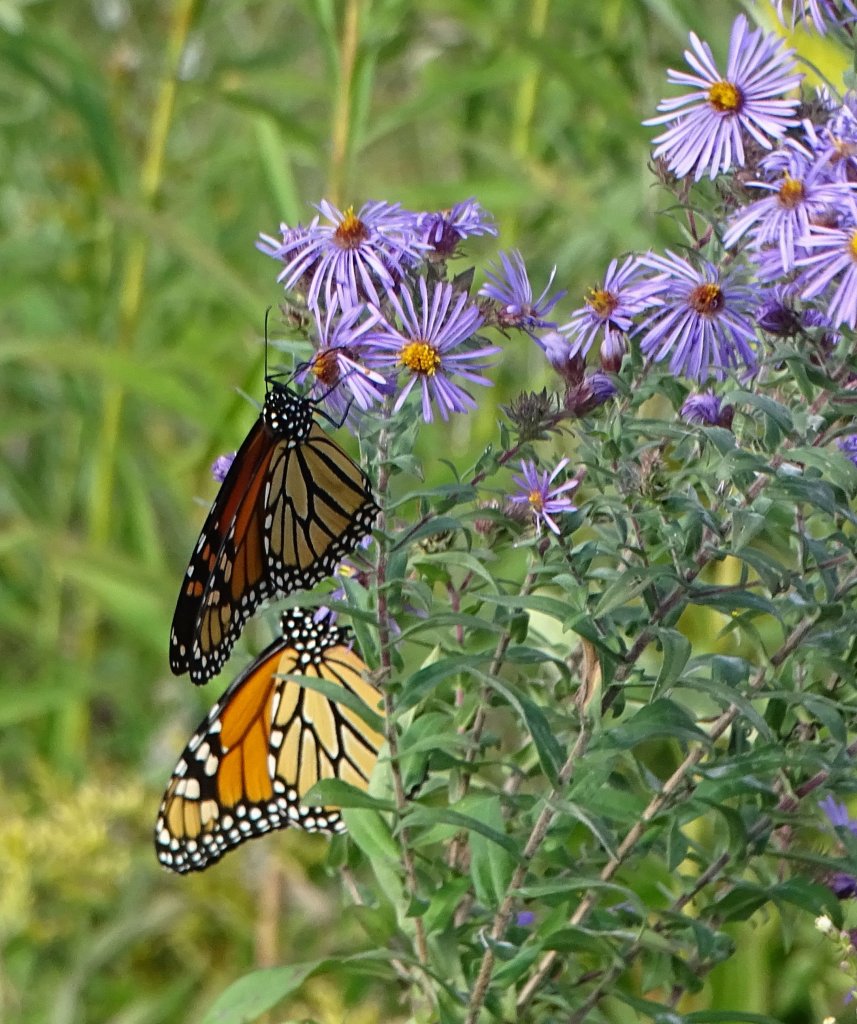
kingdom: Animalia
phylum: Arthropoda
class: Insecta
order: Lepidoptera
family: Nymphalidae
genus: Danaus
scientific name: Danaus plexippus
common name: Monarch
